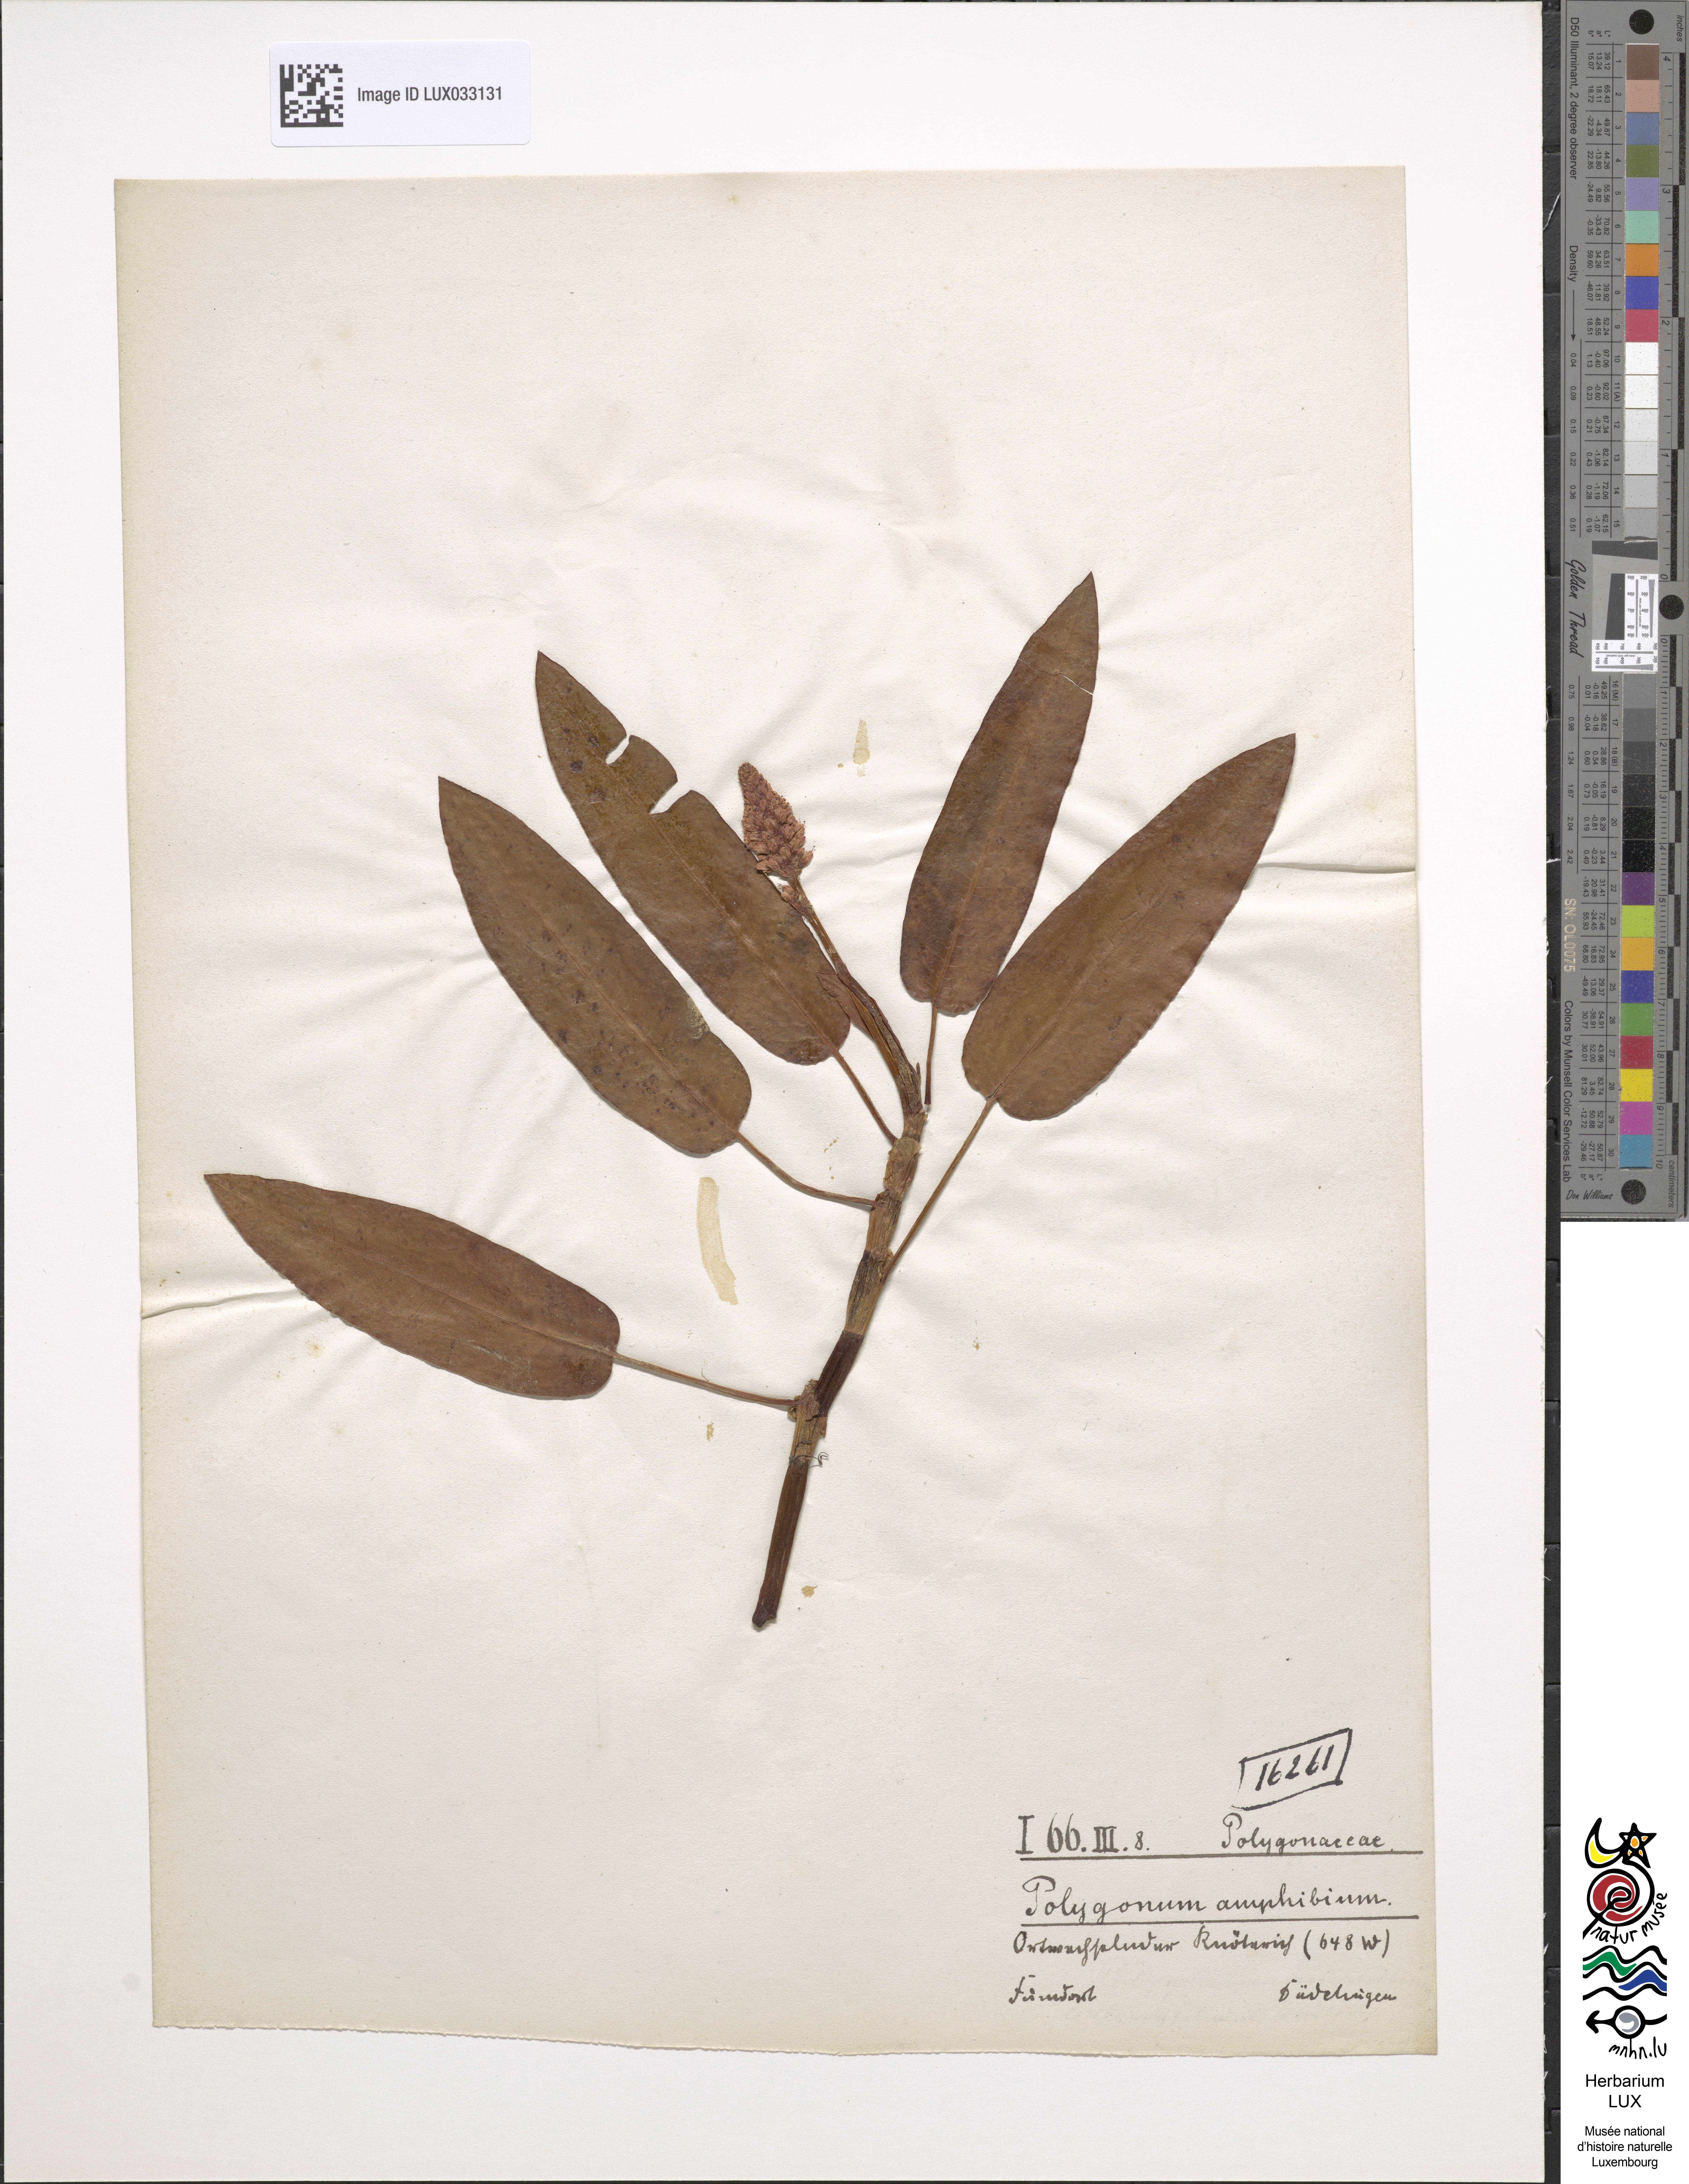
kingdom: Plantae
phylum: Tracheophyta
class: Magnoliopsida
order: Caryophyllales
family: Polygonaceae
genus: Persicaria
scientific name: Persicaria amphibia
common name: Amphibious bistort
